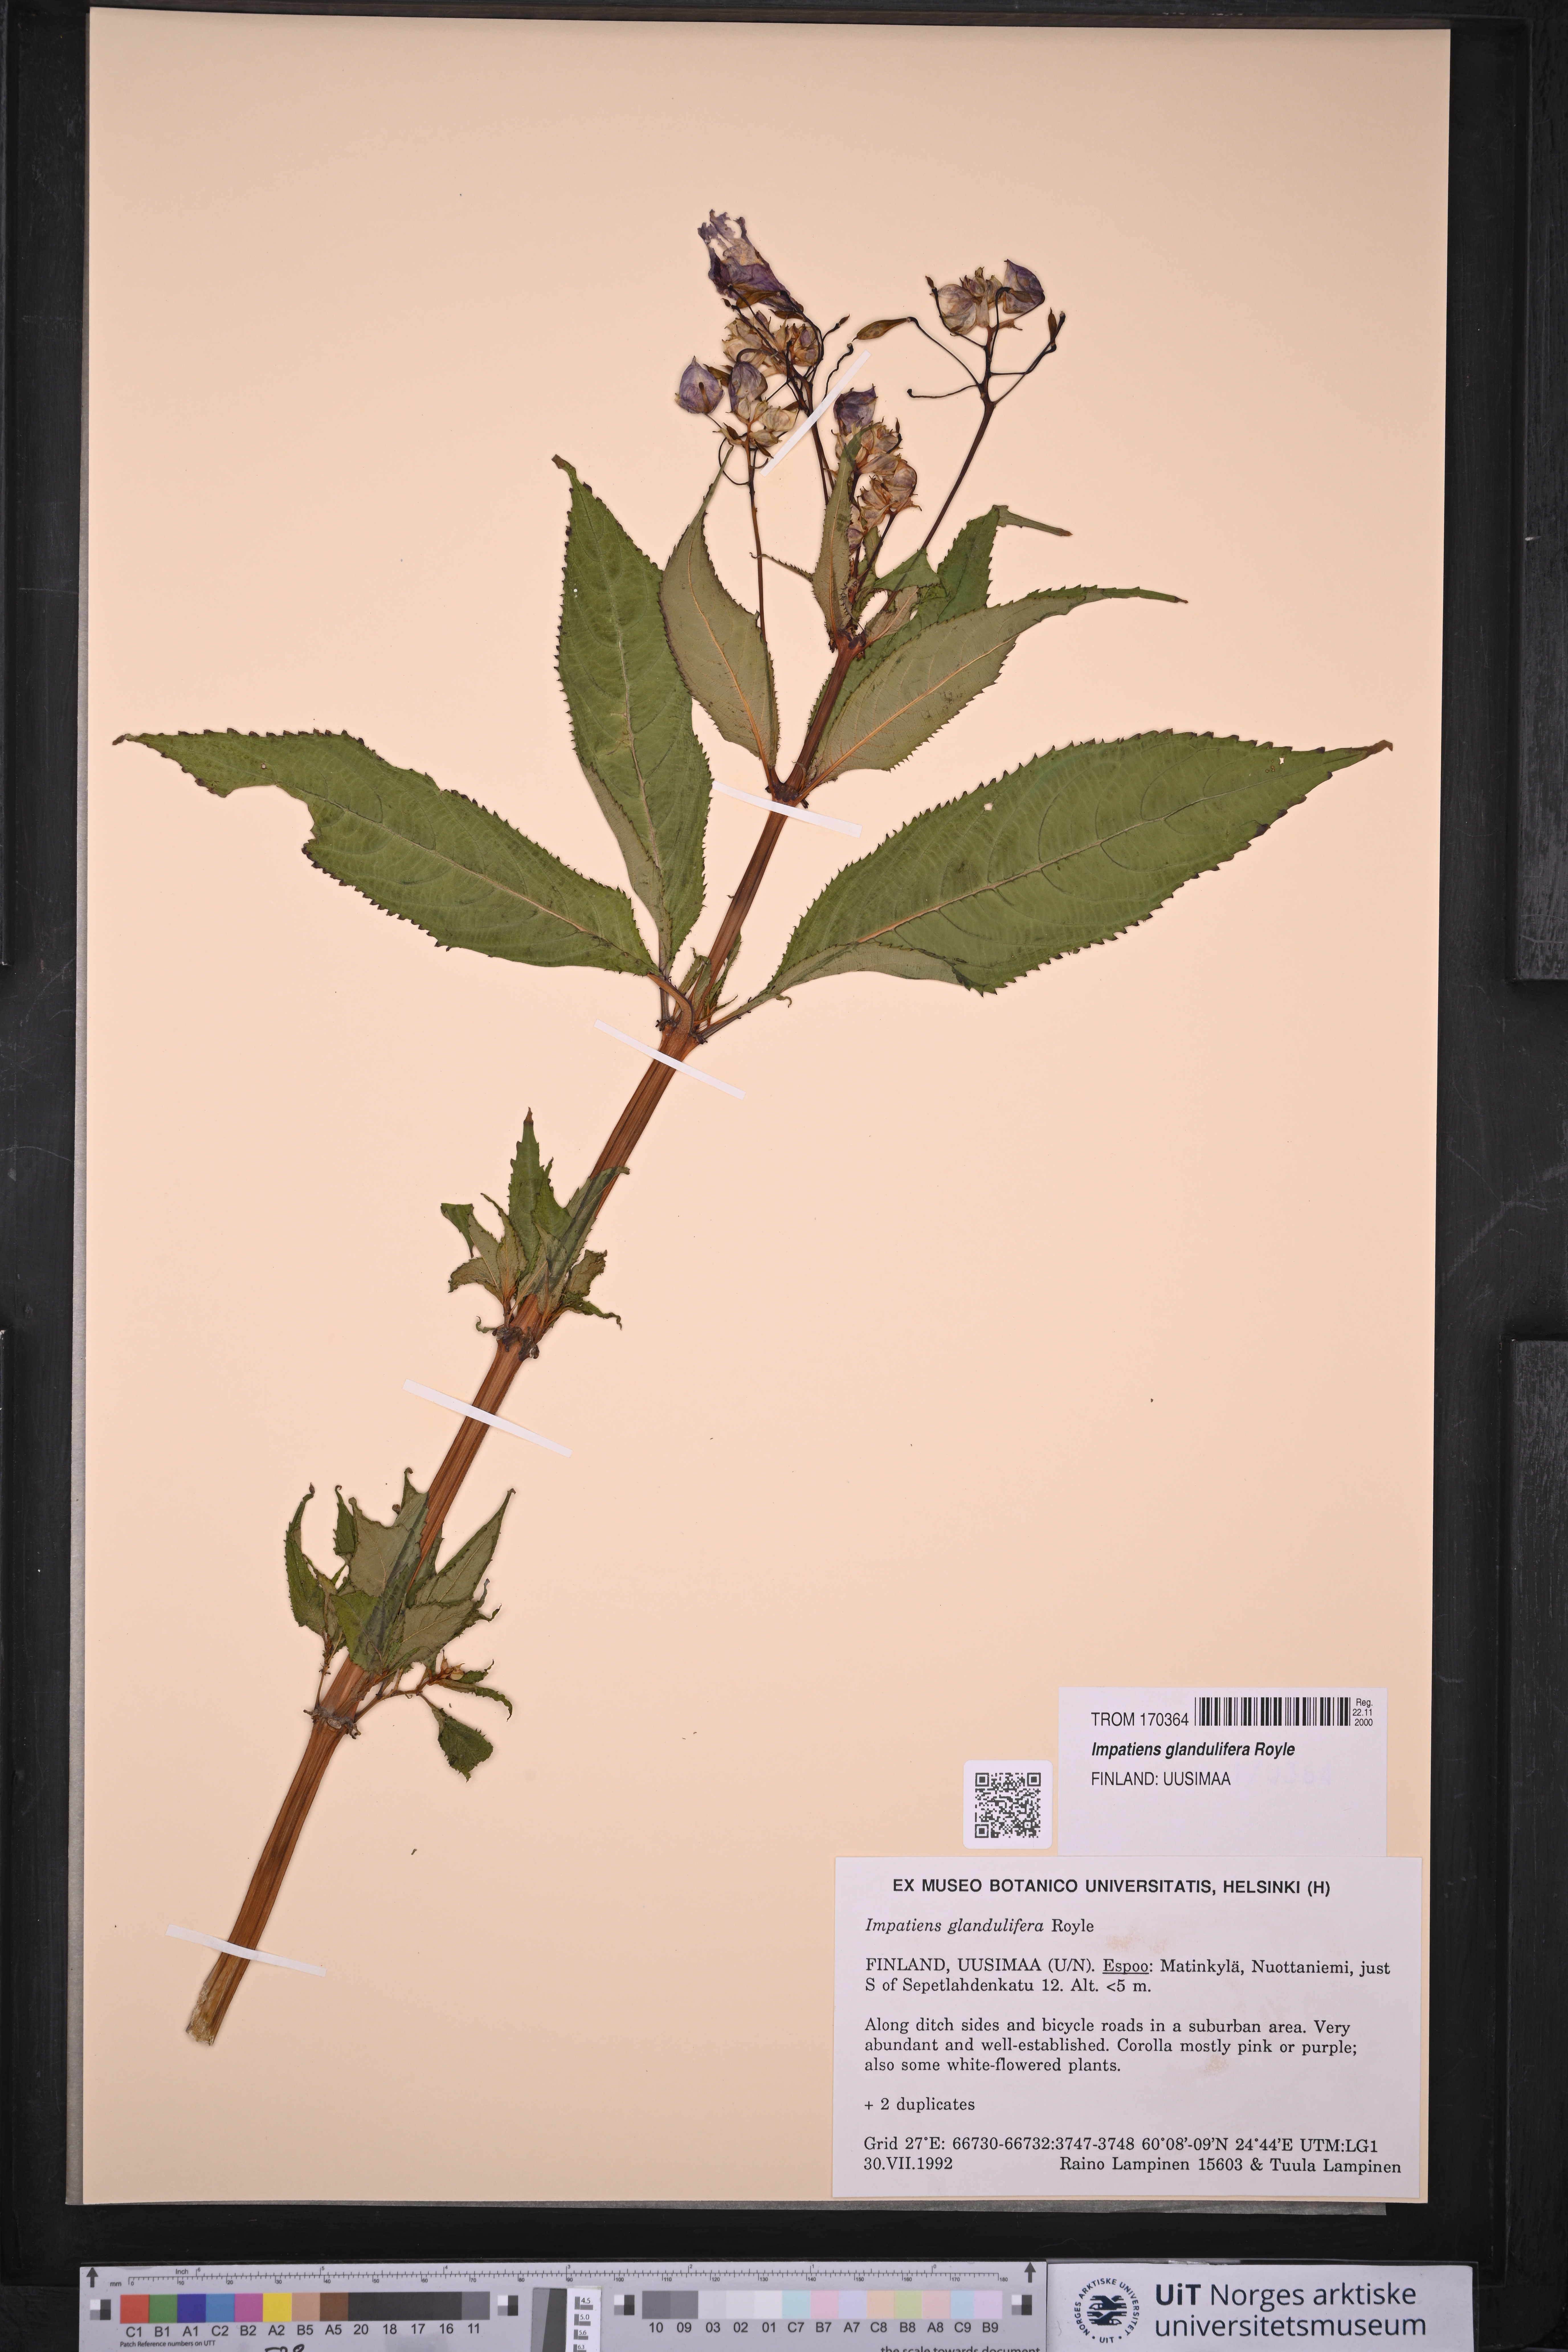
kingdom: Plantae
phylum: Tracheophyta
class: Magnoliopsida
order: Ericales
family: Balsaminaceae
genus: Impatiens
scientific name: Impatiens glandulifera
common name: Himalayan balsam
